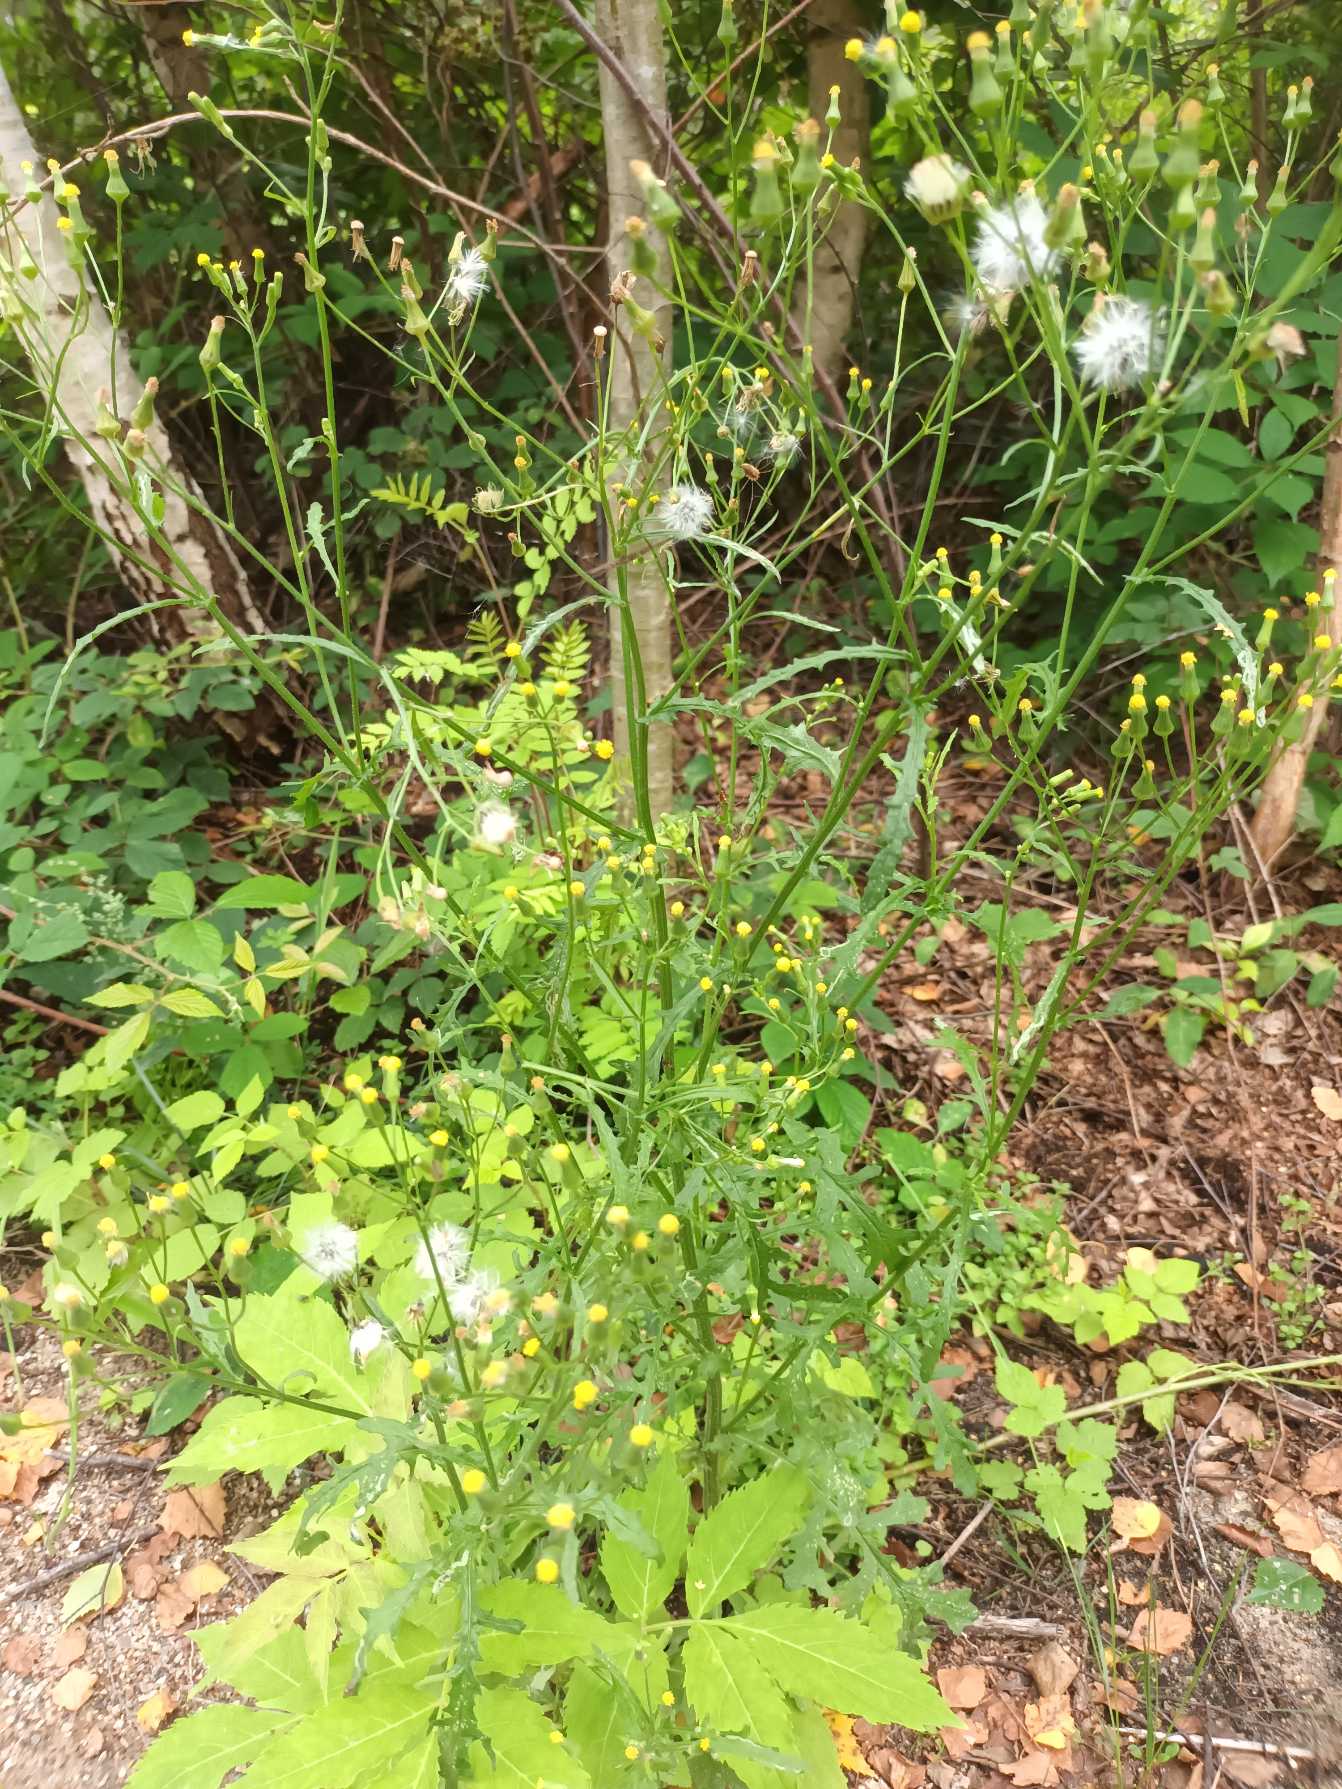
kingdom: Plantae
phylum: Tracheophyta
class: Magnoliopsida
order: Asterales
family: Asteraceae
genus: Senecio
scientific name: Senecio sylvaticus
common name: Skov-brandbæger
